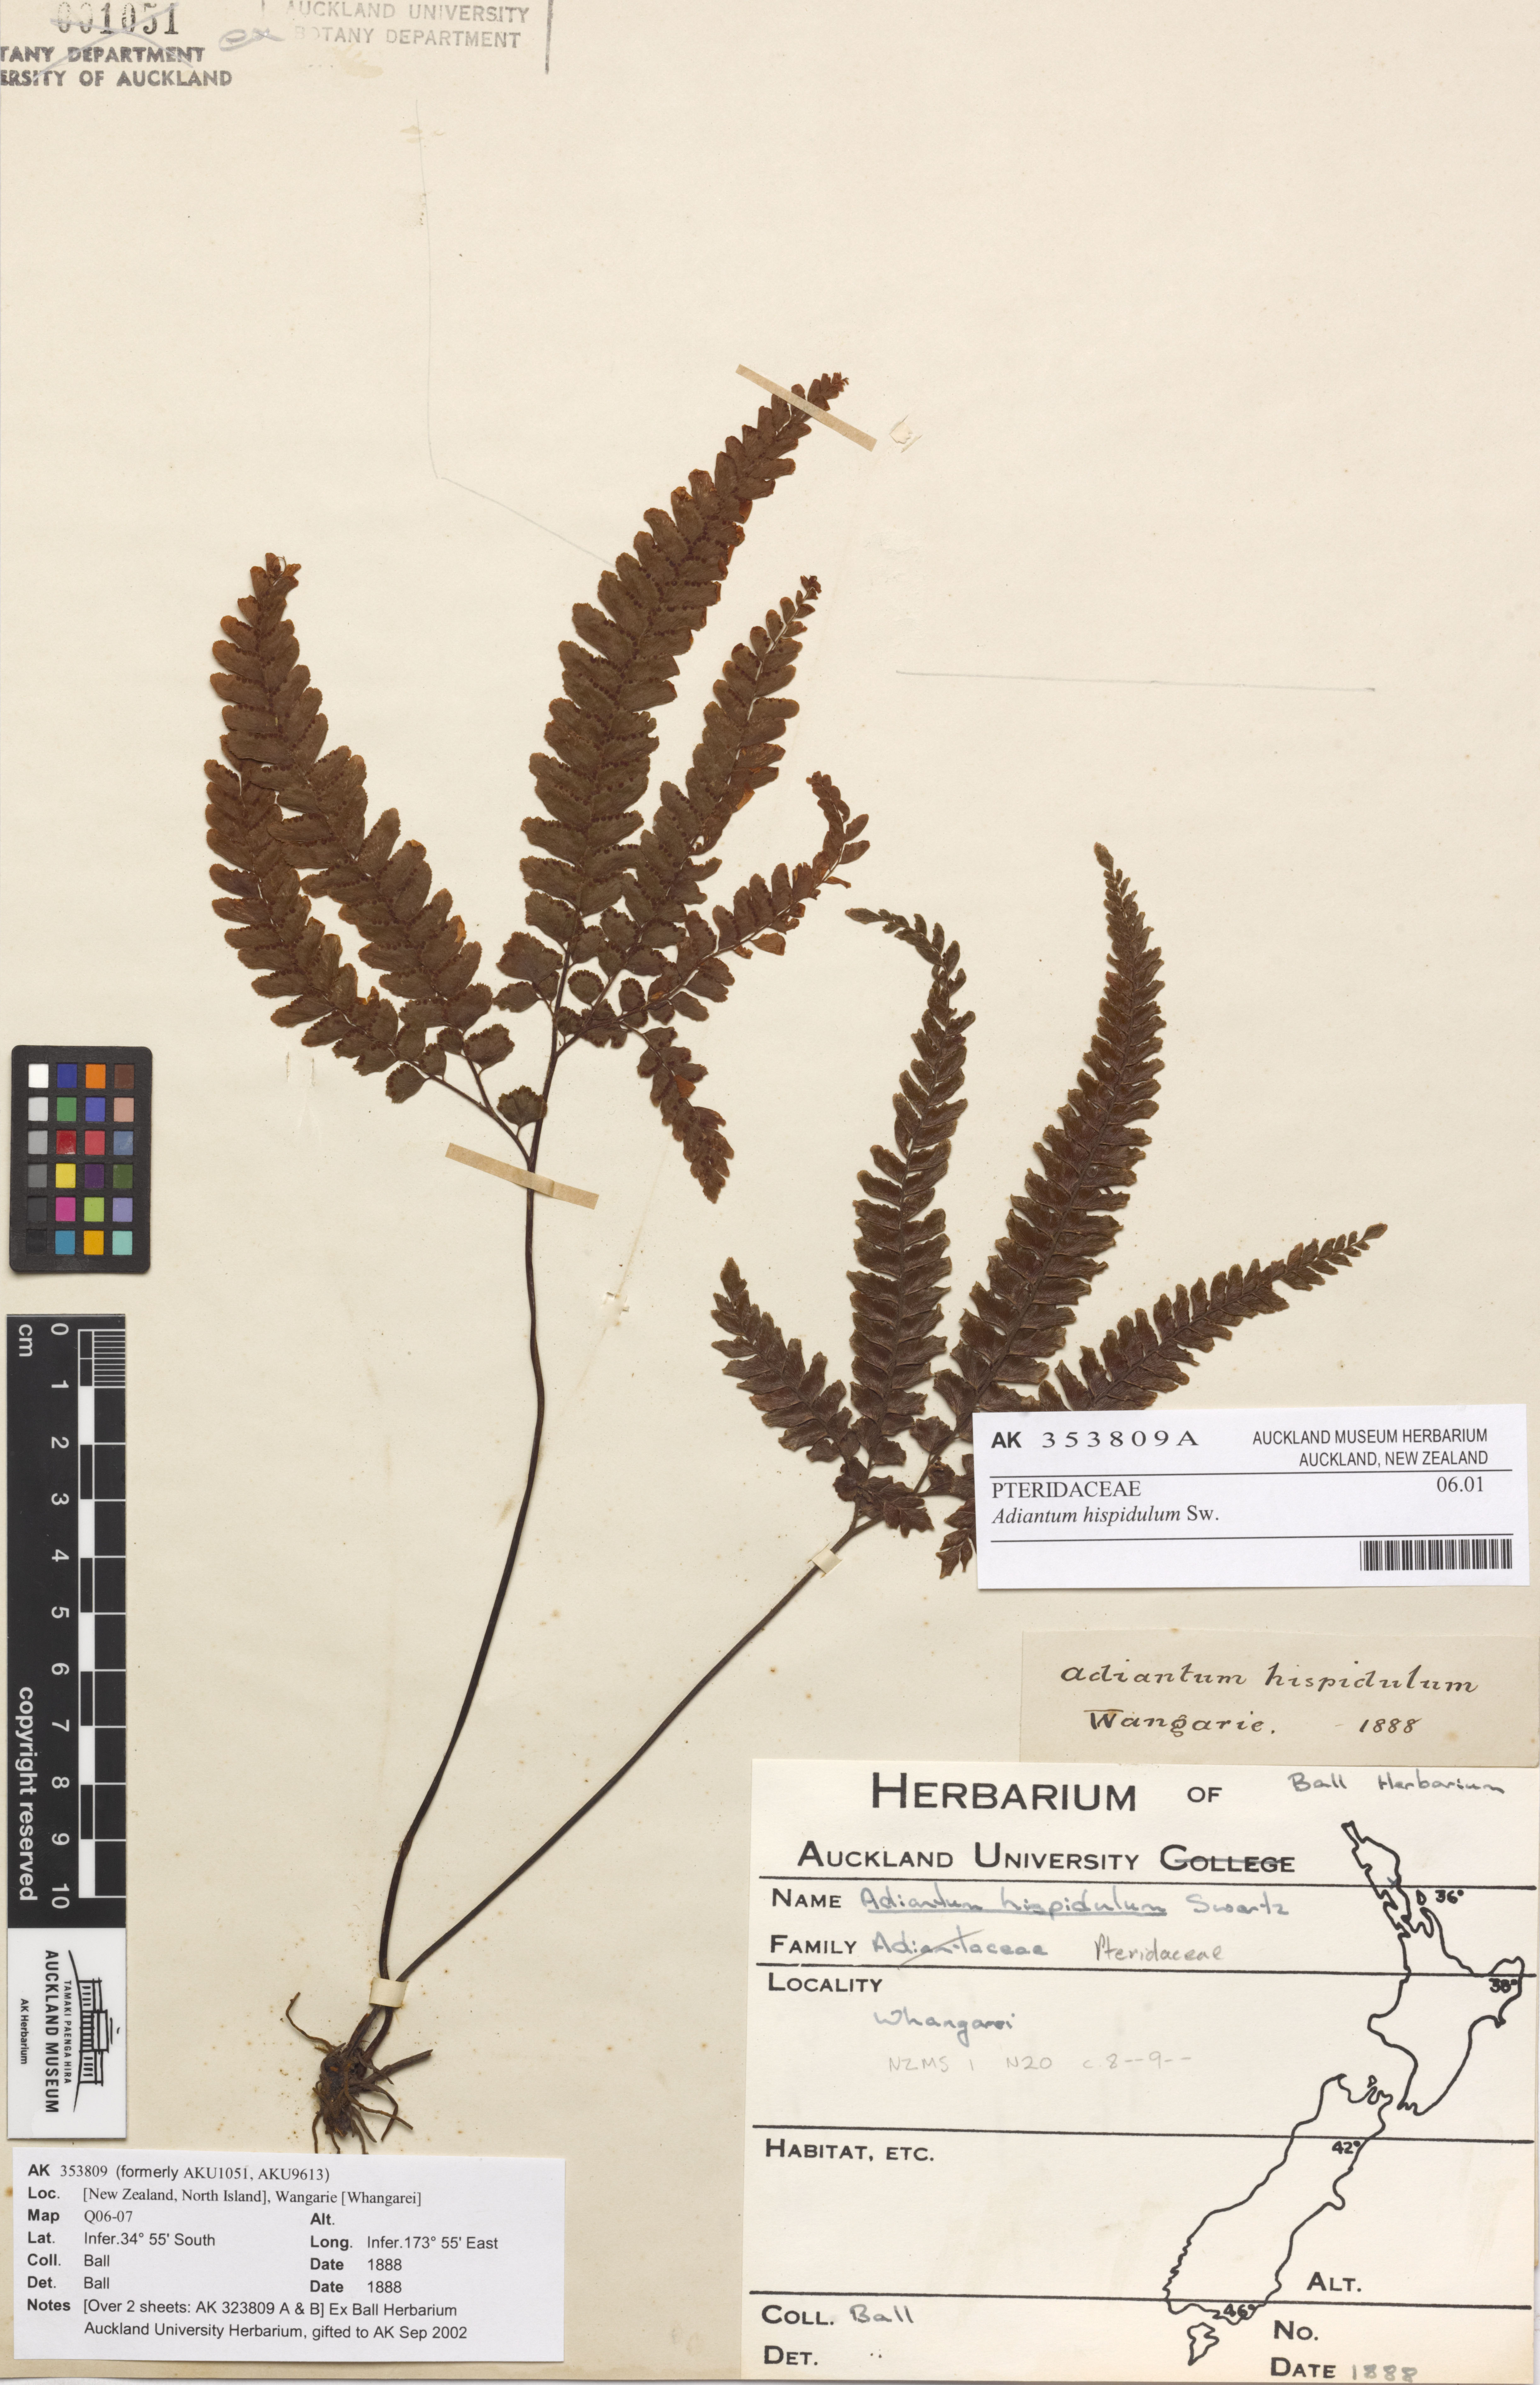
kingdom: Plantae
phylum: Tracheophyta
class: Polypodiopsida
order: Polypodiales
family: Pteridaceae
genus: Adiantum
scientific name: Adiantum hispidulum
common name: Rough maidenhair
